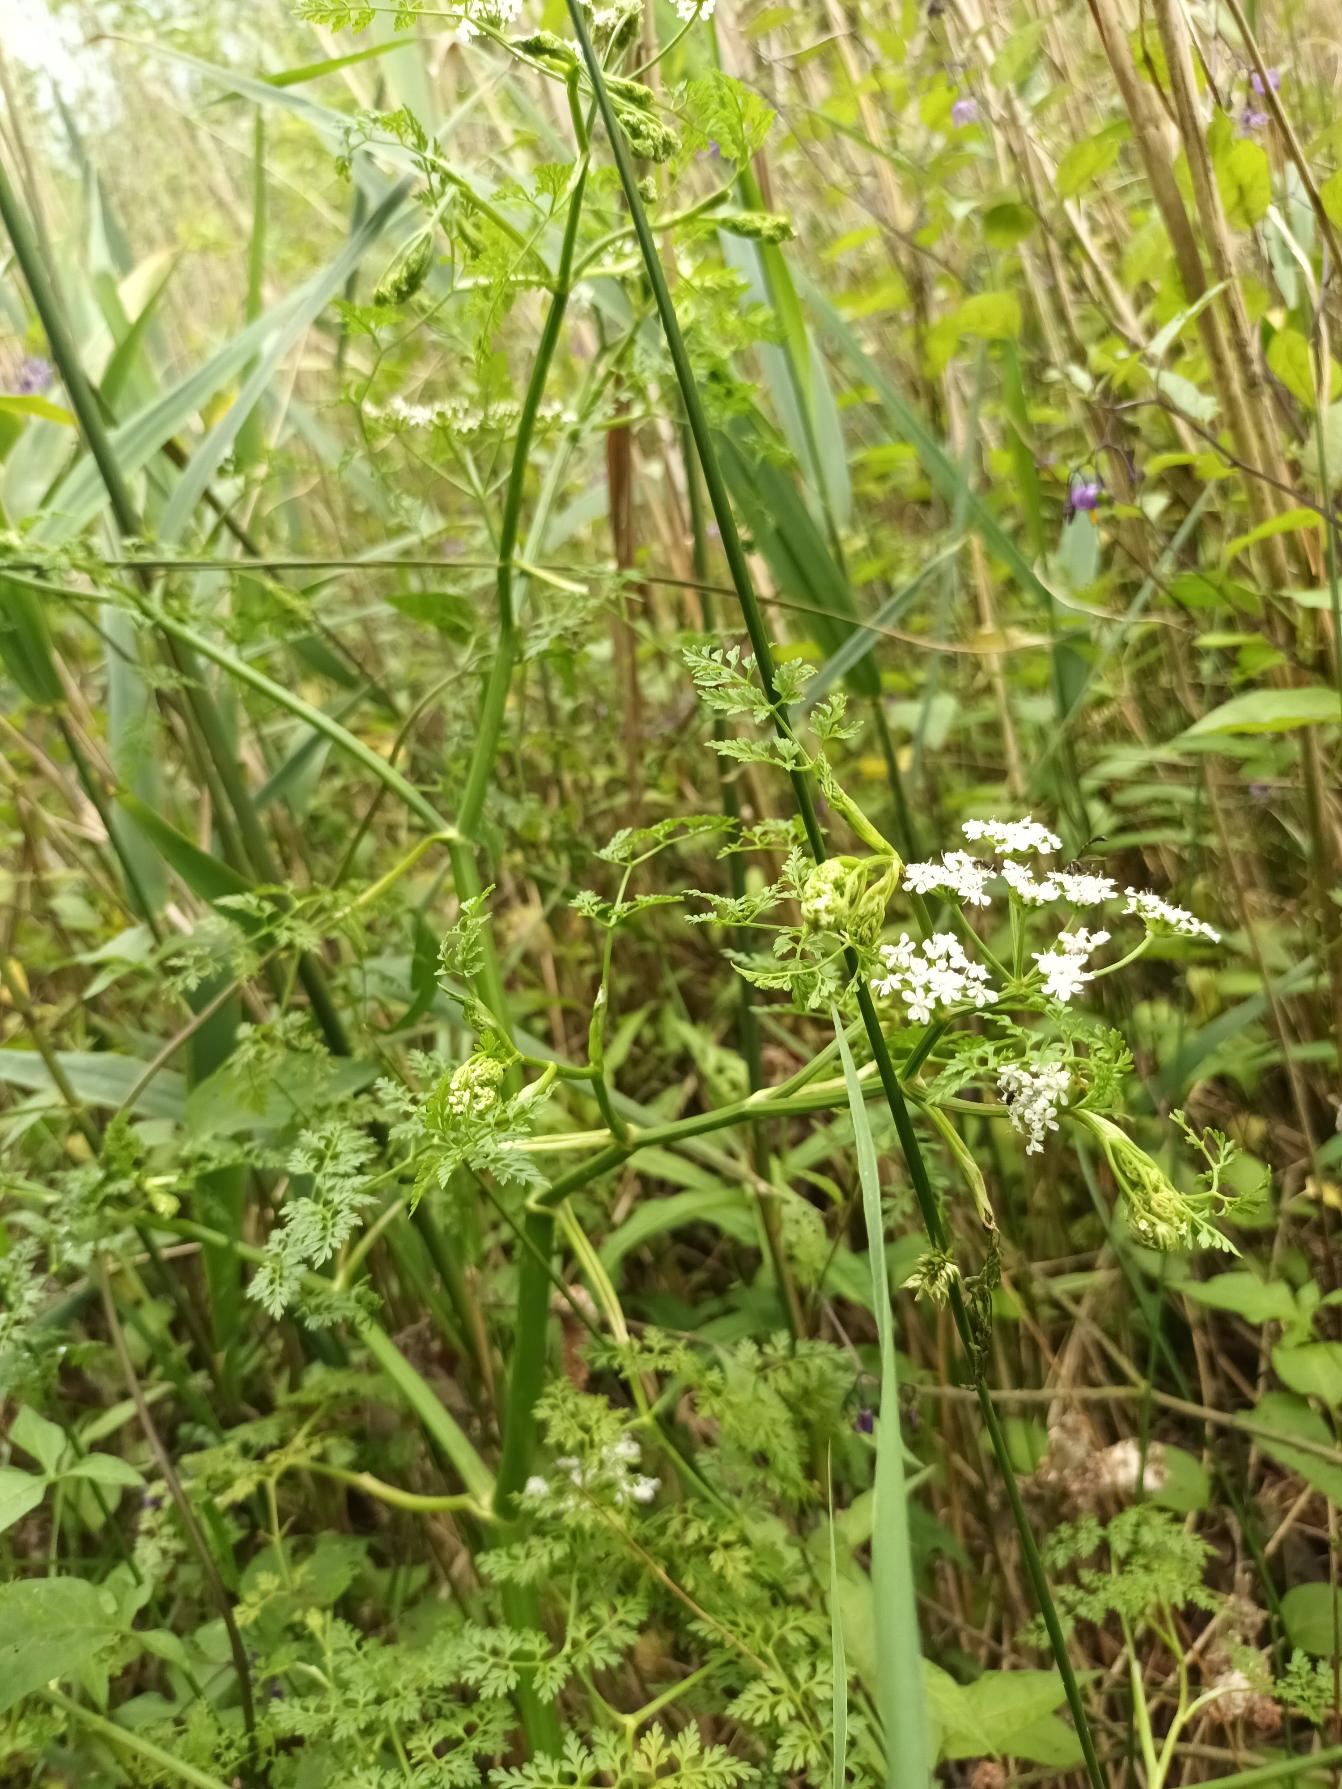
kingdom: Plantae
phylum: Tracheophyta
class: Magnoliopsida
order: Apiales
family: Apiaceae
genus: Oenanthe
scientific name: Oenanthe aquatica
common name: Billebo-klaseskærm
